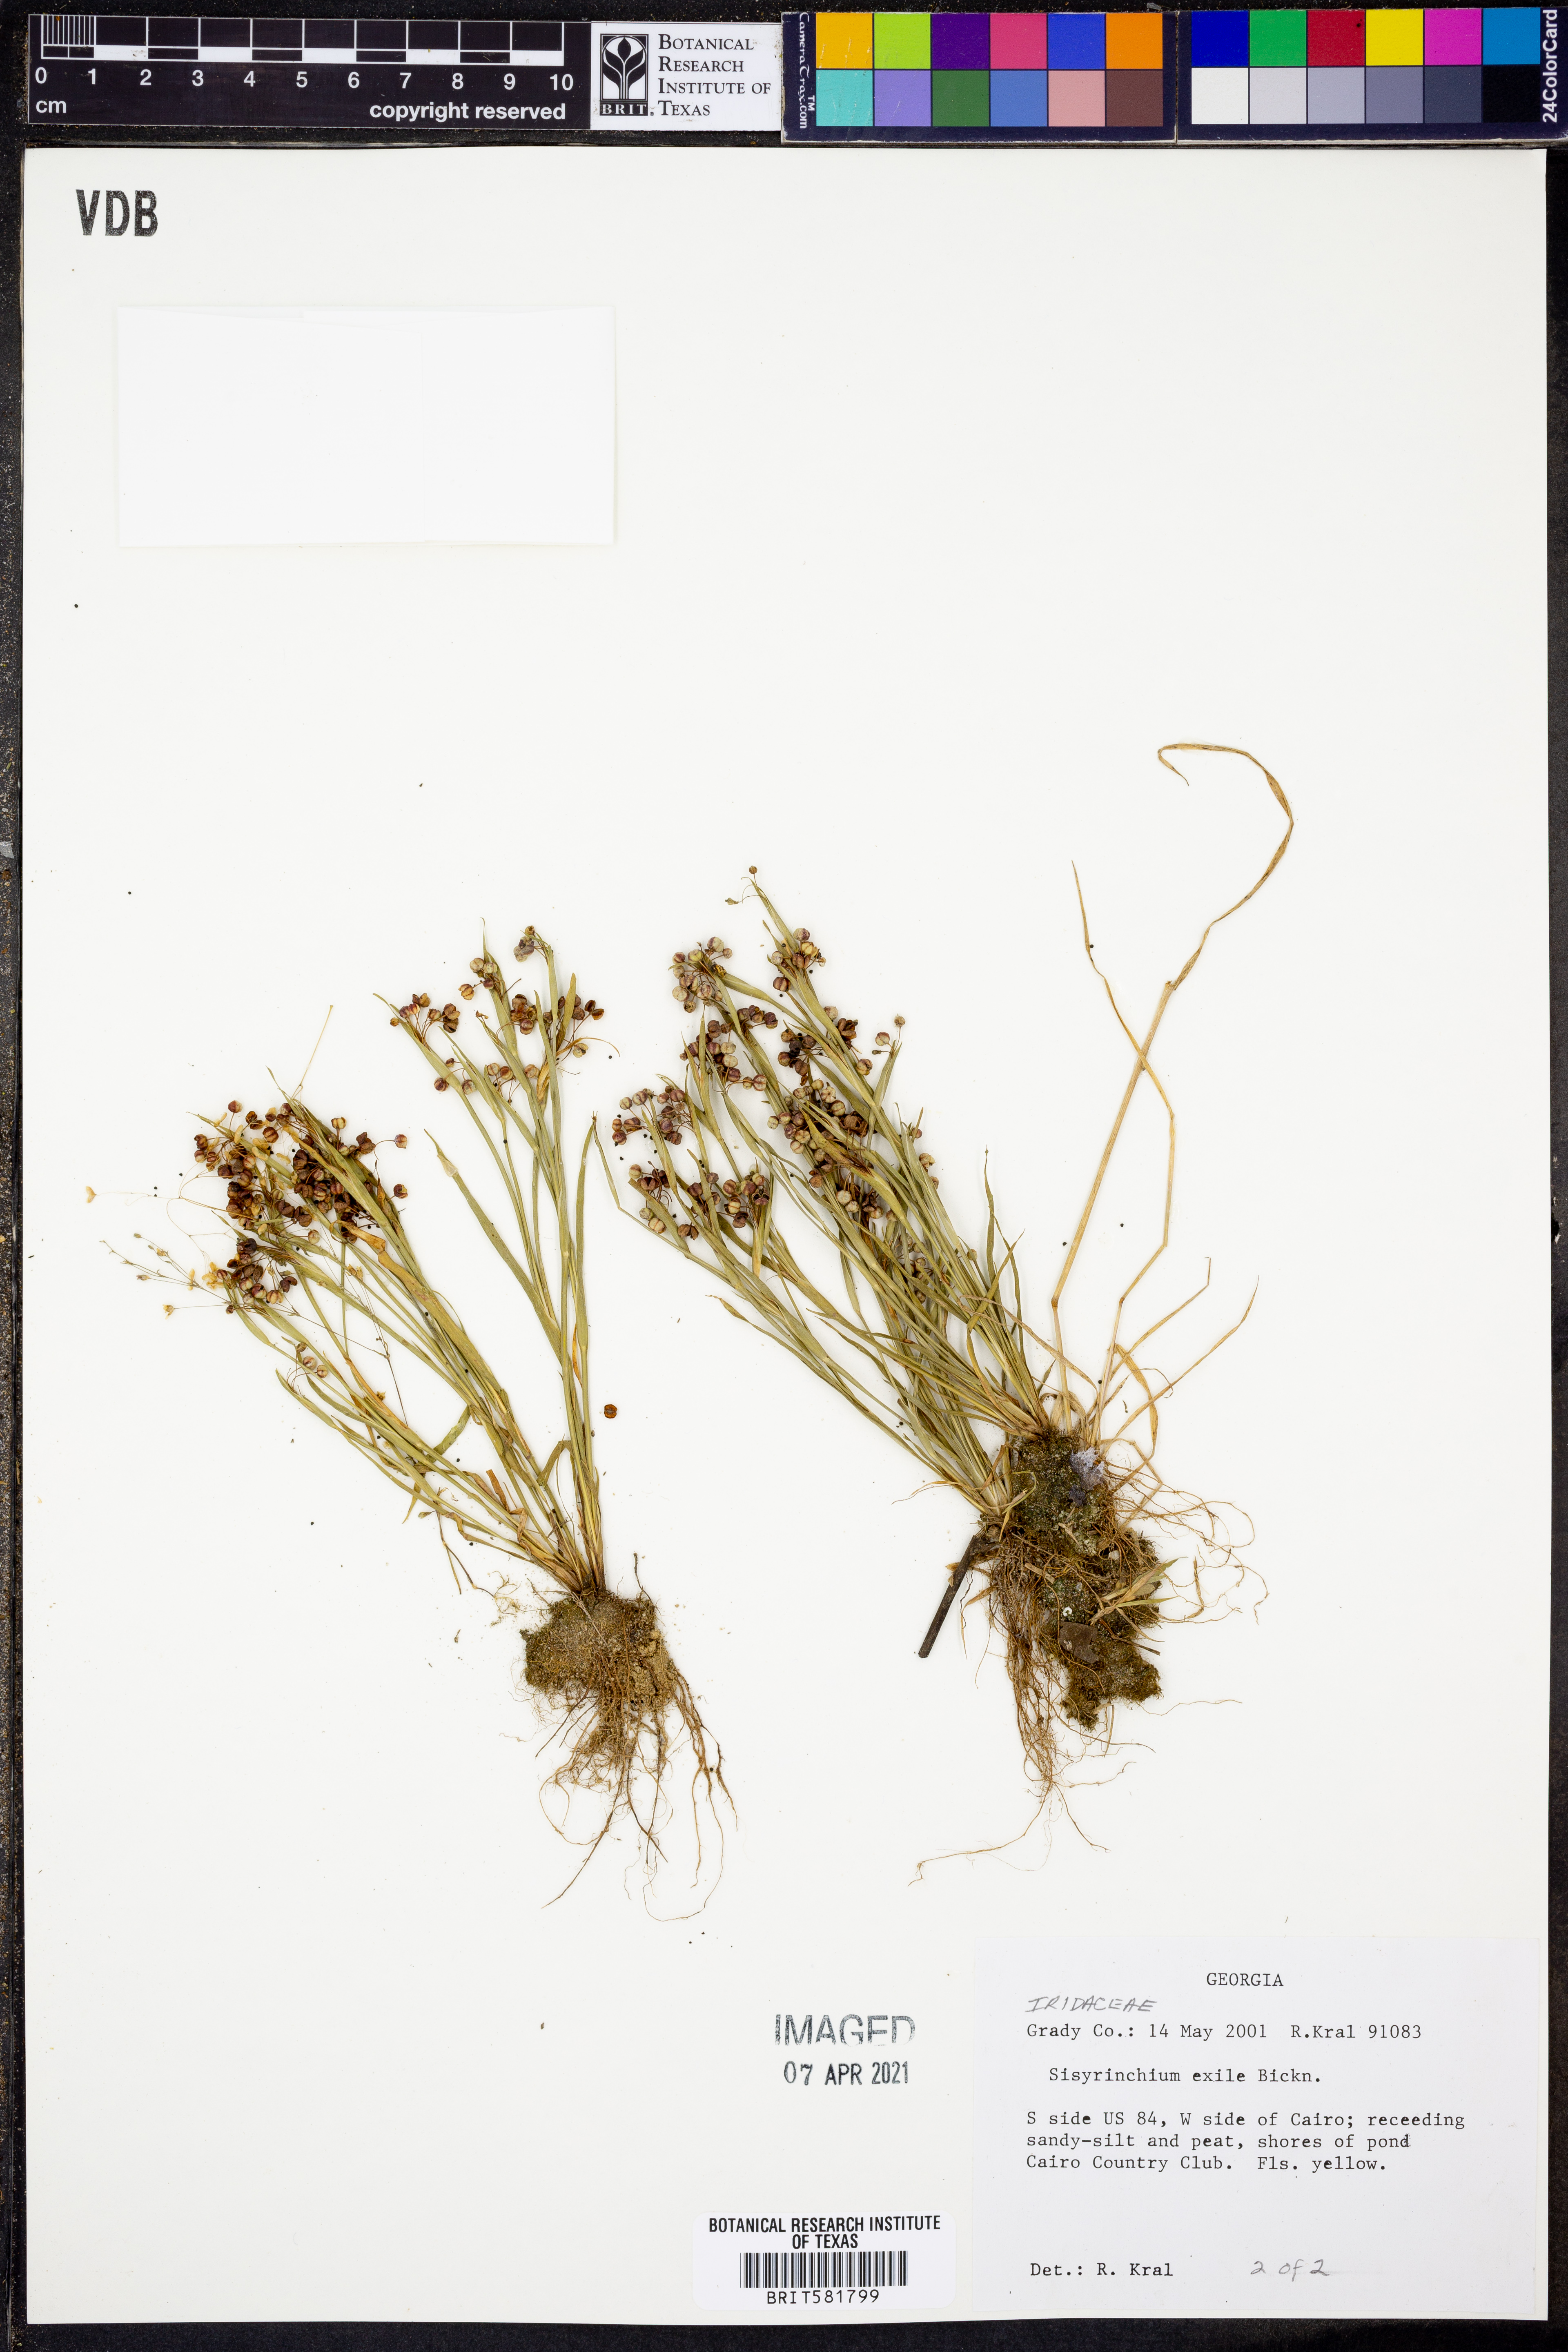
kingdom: Plantae
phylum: Tracheophyta
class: Liliopsida
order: Asparagales
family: Iridaceae
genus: Sisyrinchium
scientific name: Sisyrinchium rosulatum
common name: Annual blue-eyed grass
